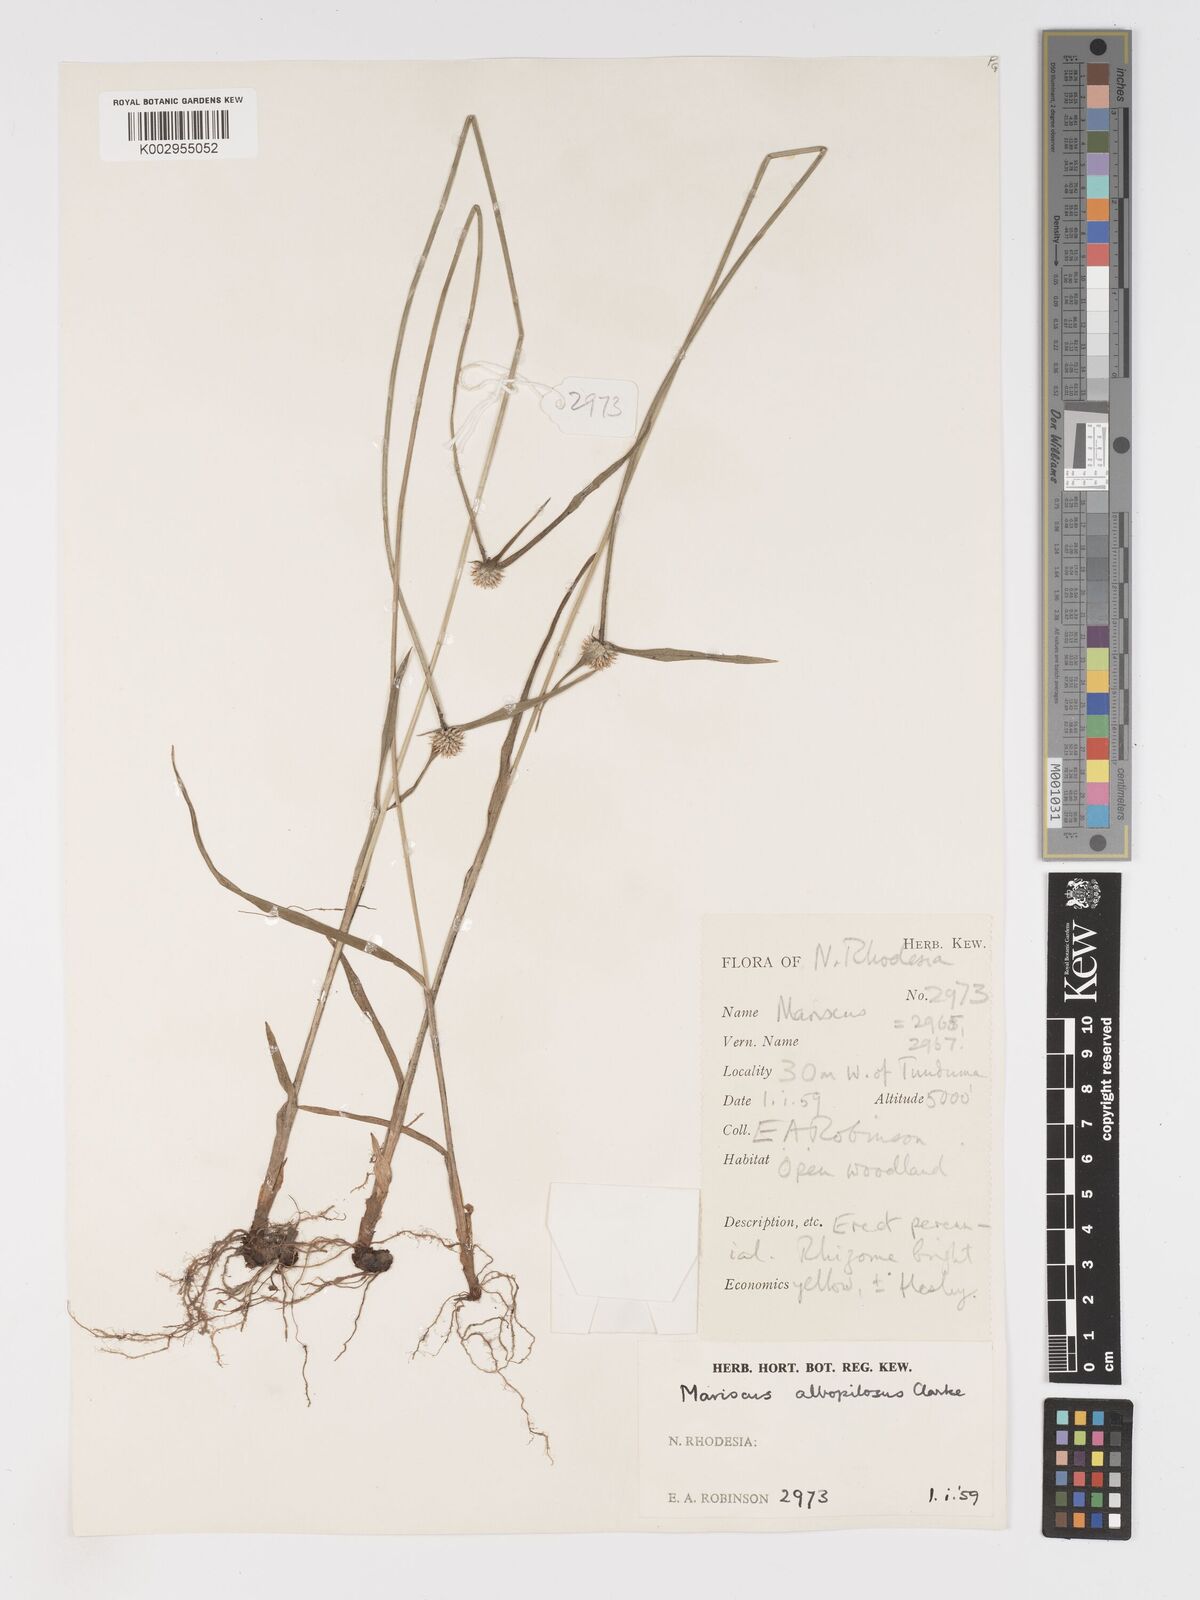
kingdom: Plantae
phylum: Tracheophyta
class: Liliopsida
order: Poales
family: Cyperaceae
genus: Cyperus
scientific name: Cyperus albopilosus
